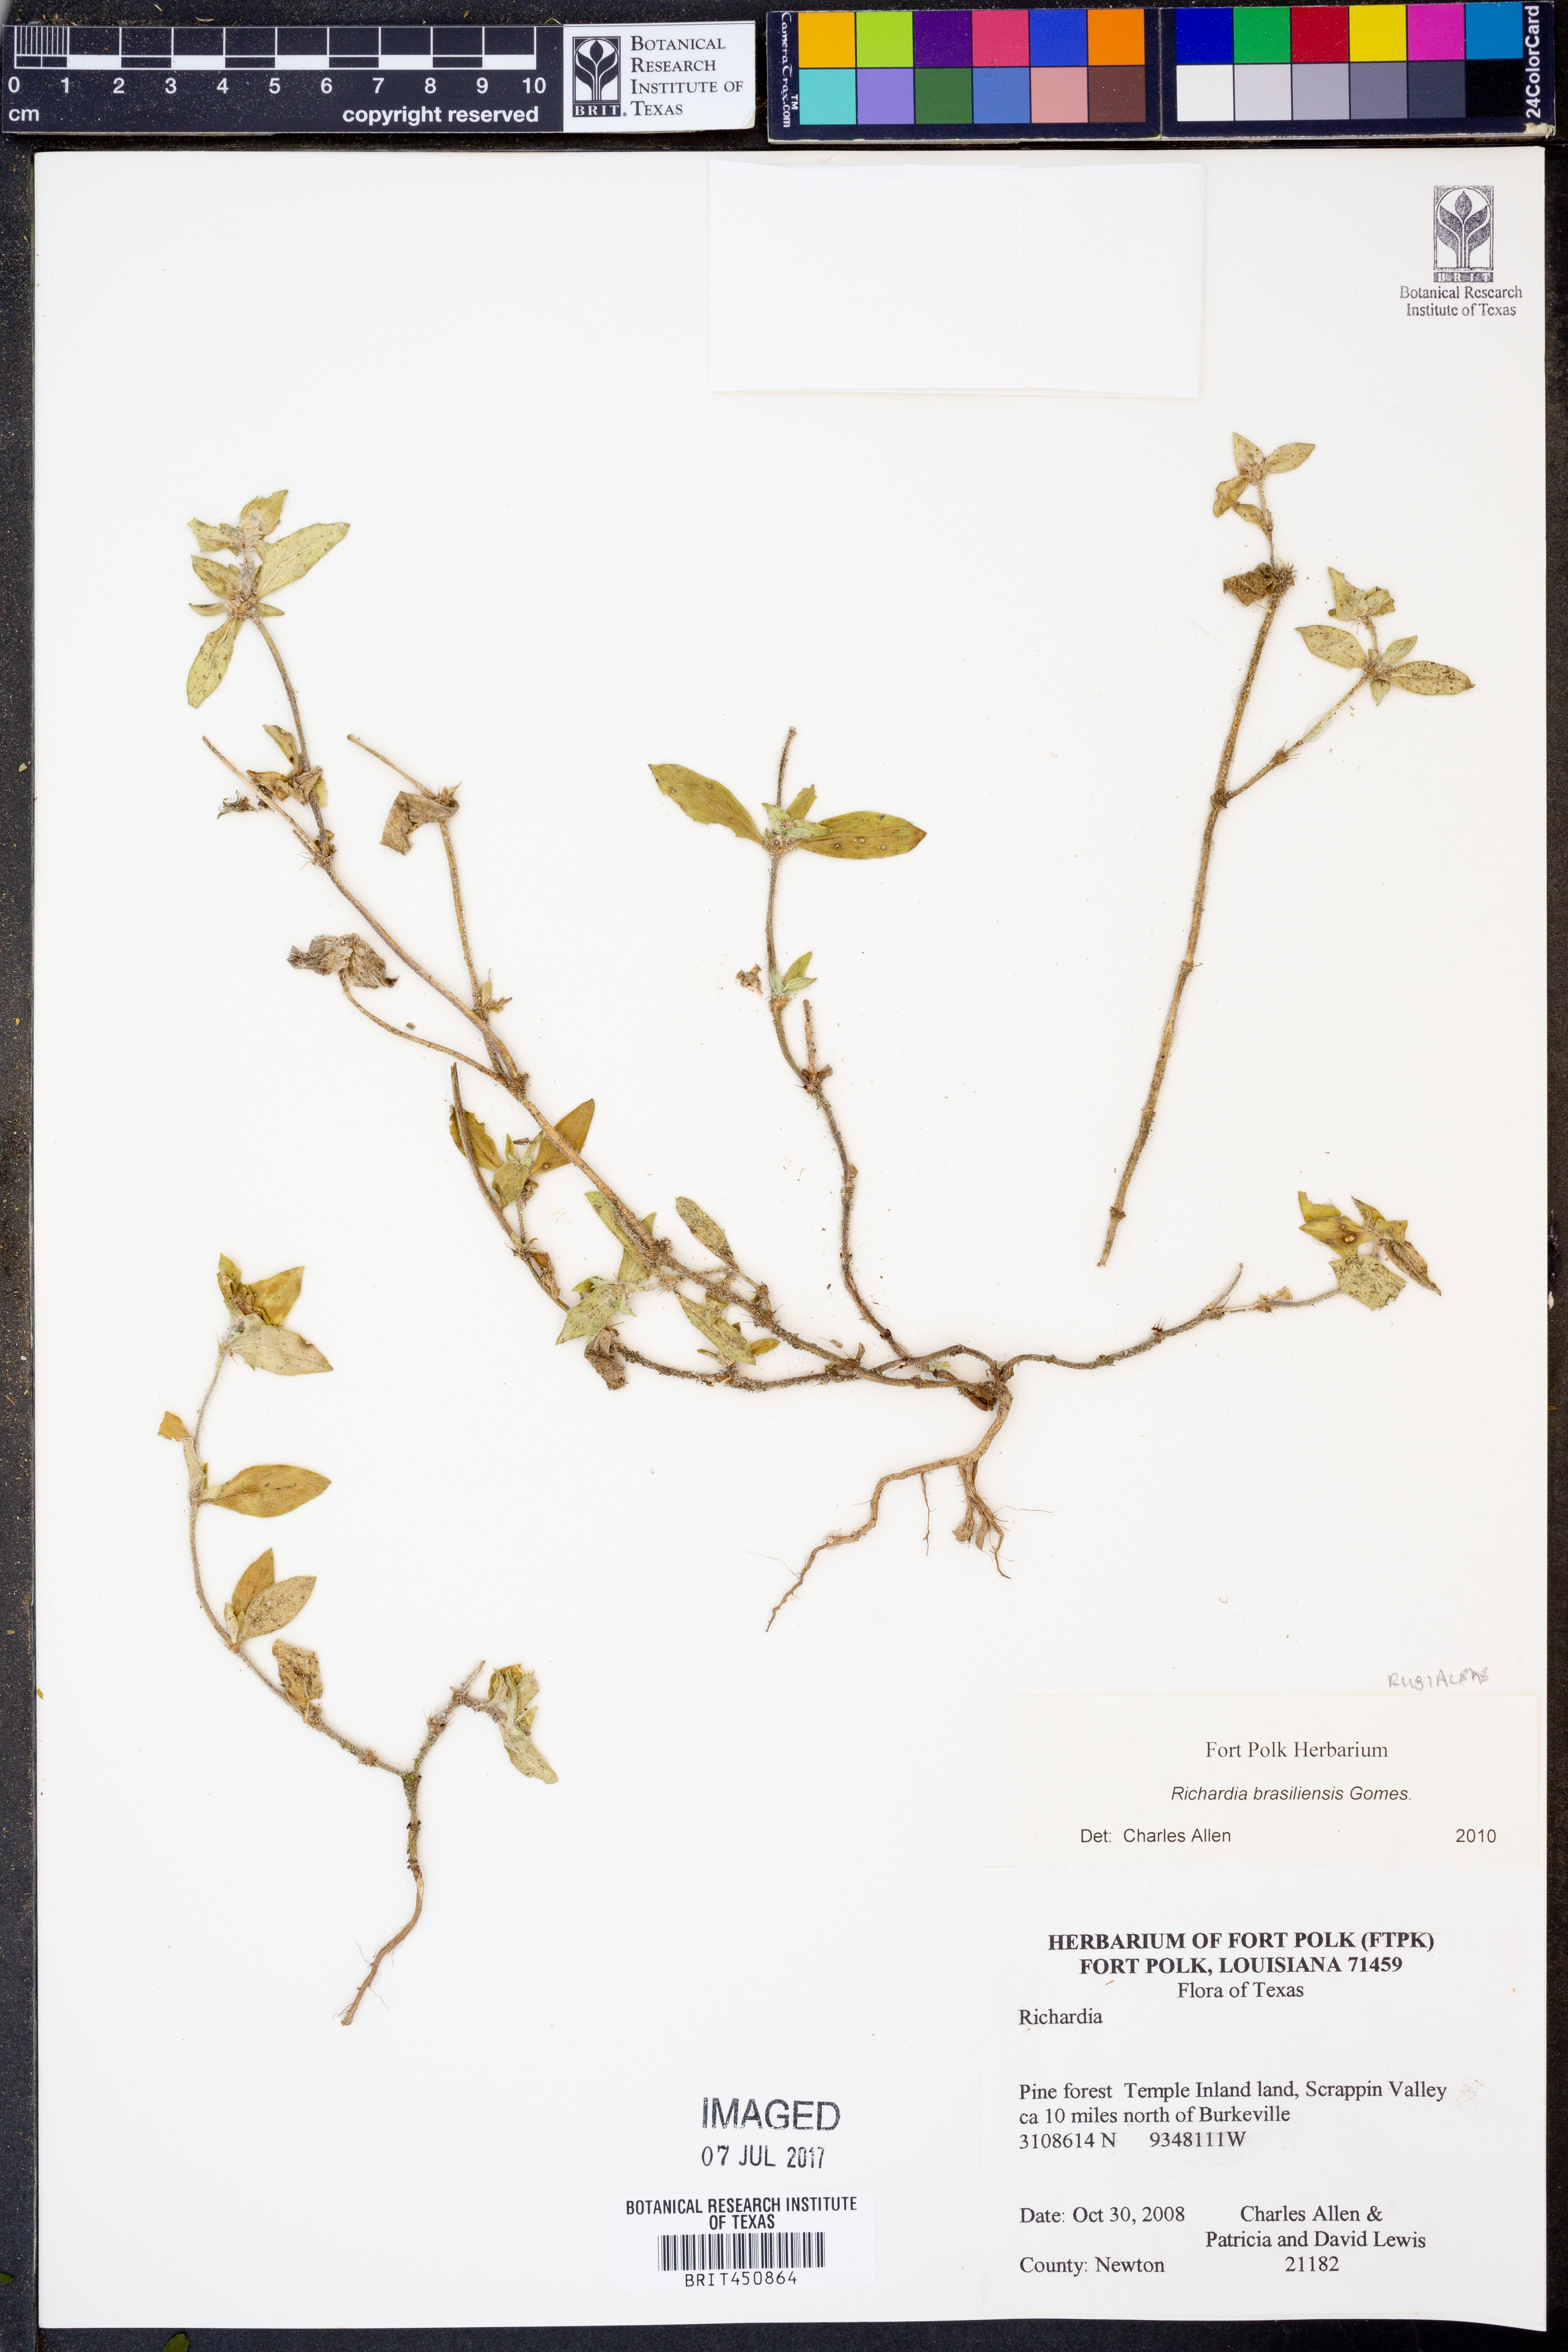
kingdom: Plantae
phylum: Tracheophyta
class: Magnoliopsida
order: Gentianales
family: Rubiaceae
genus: Richardia
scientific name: Richardia brasiliensis
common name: Tropical mexican clover
